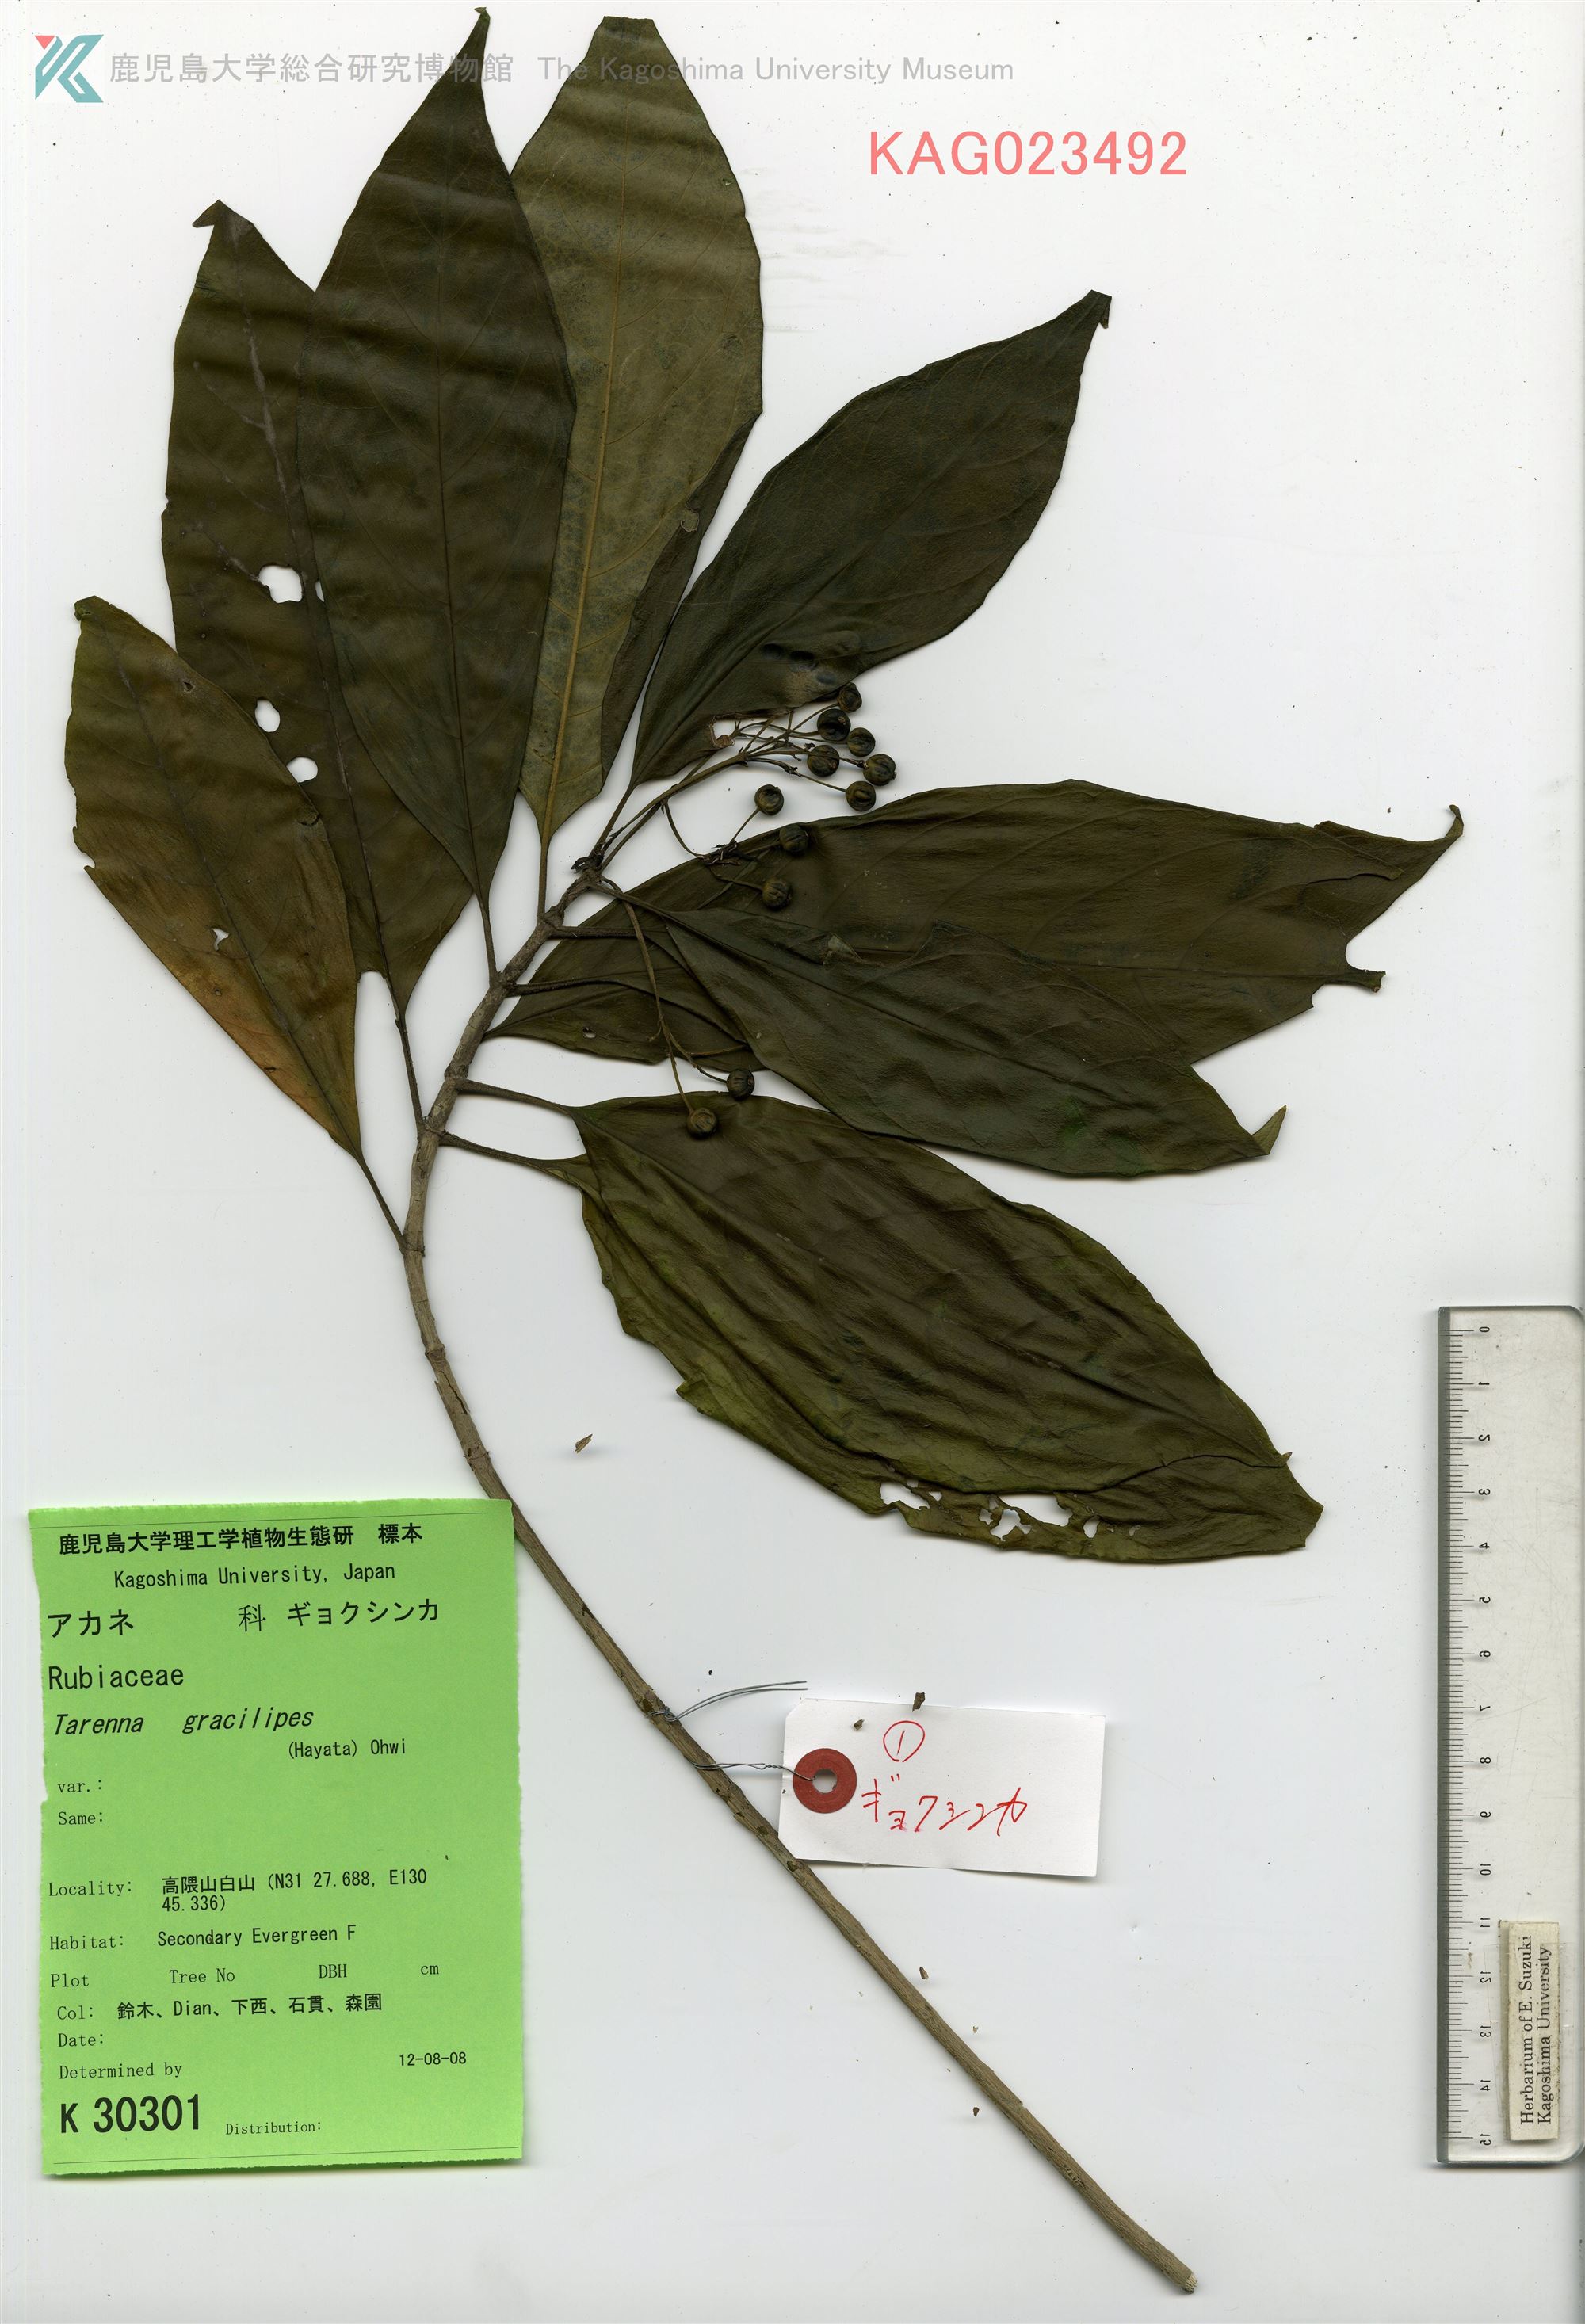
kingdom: Plantae
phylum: Tracheophyta
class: Magnoliopsida
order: Gentianales
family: Rubiaceae
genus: Tarenna
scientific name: Tarenna gracilipes
